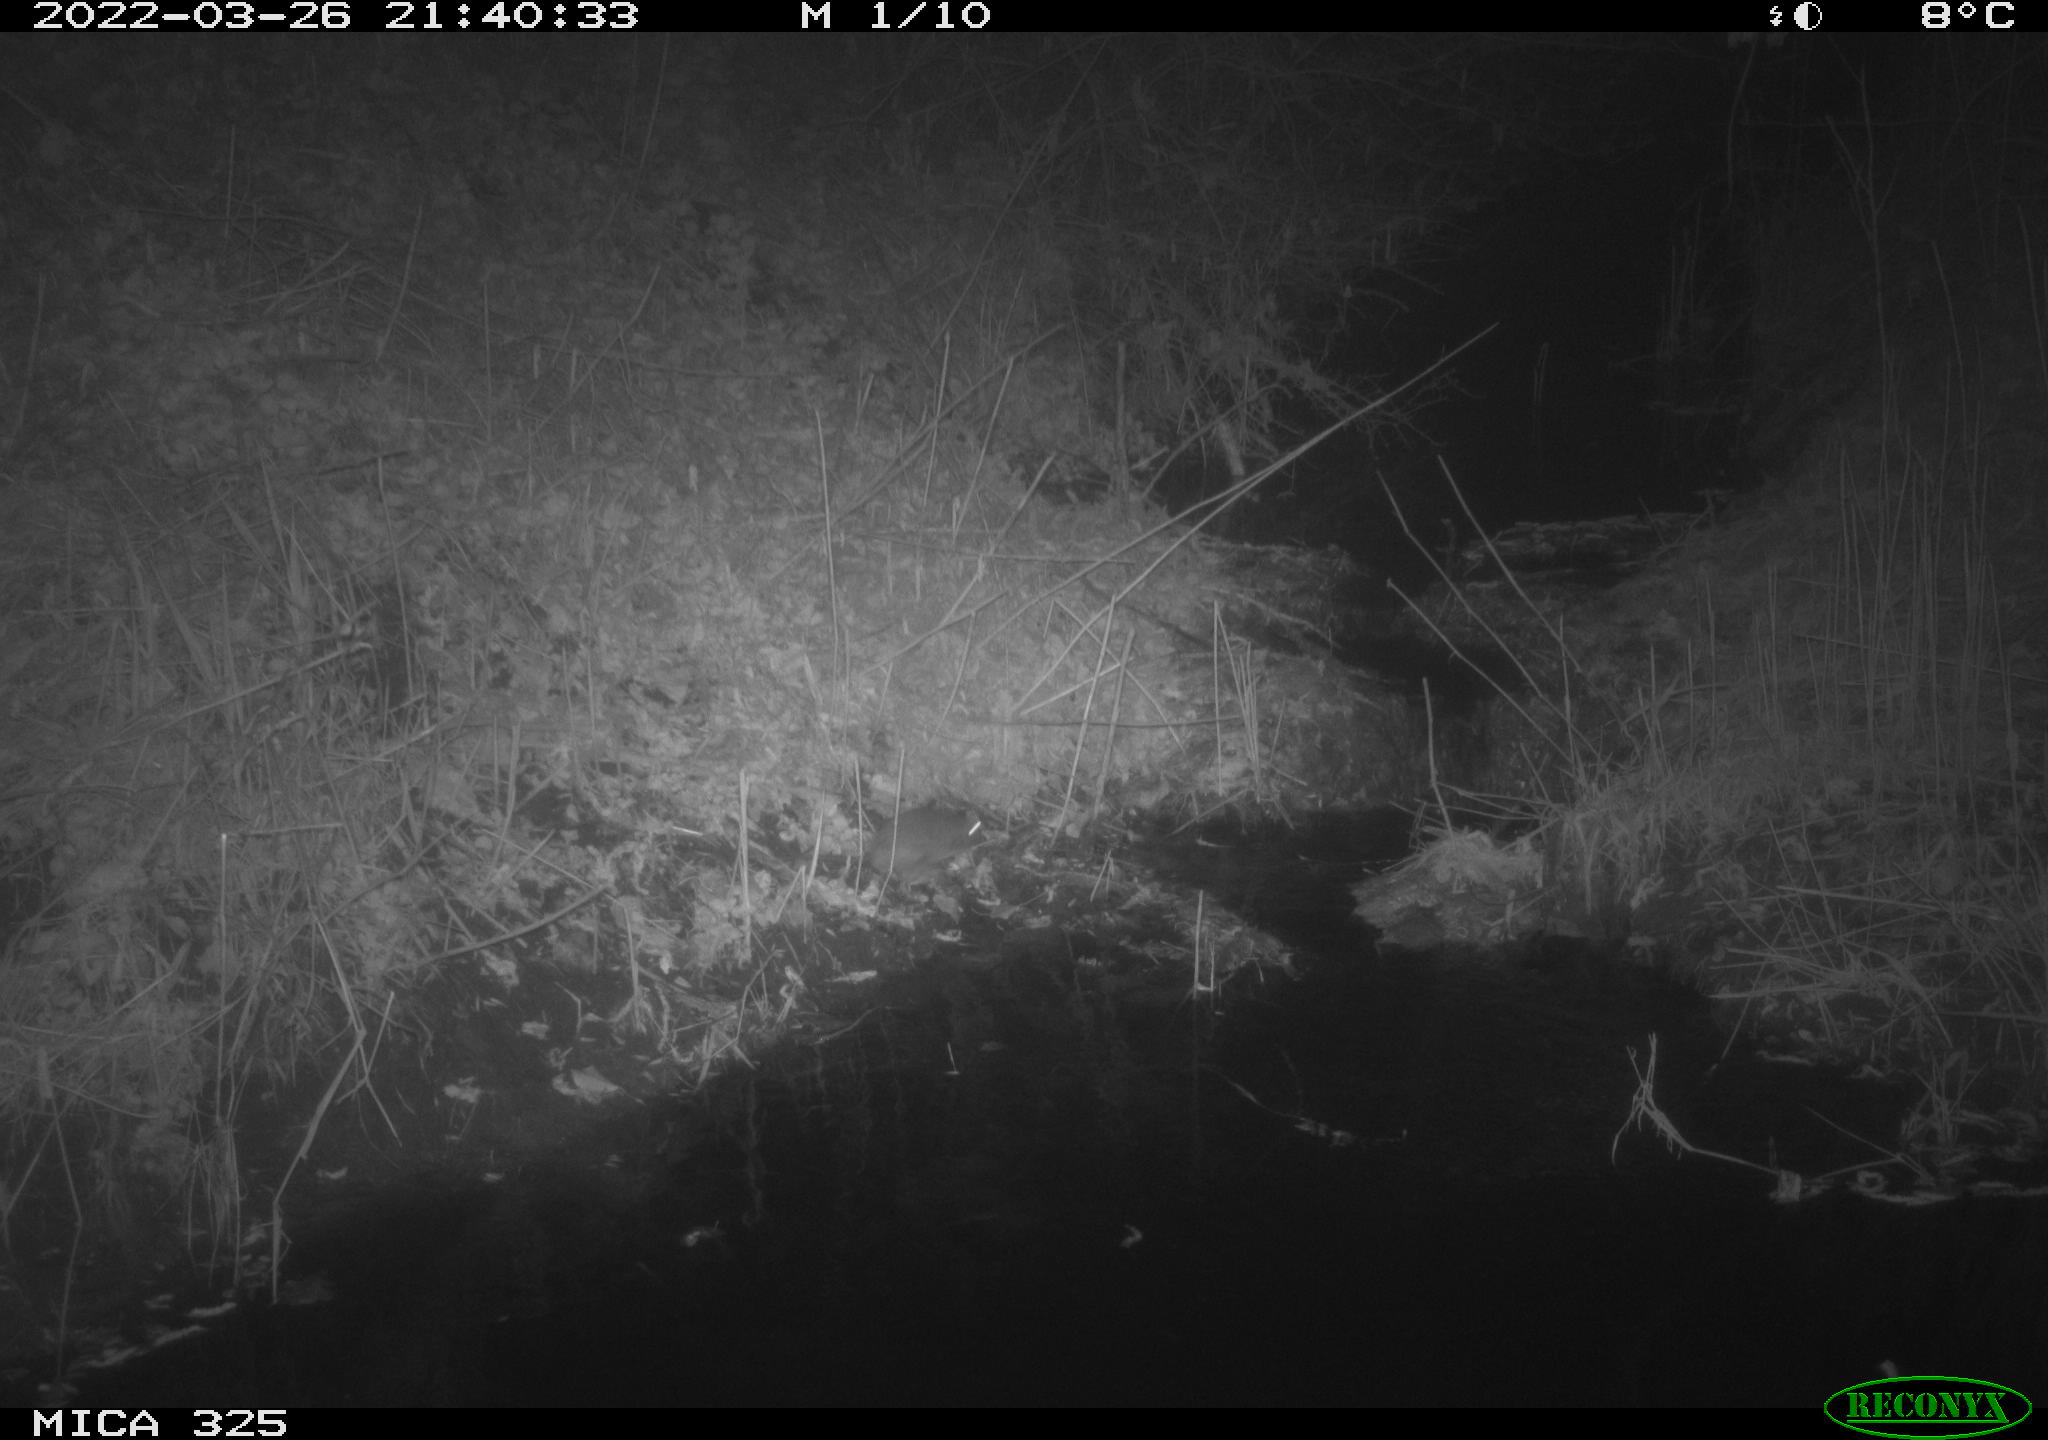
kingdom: Animalia
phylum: Chordata
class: Mammalia
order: Rodentia
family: Muridae
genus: Rattus
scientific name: Rattus norvegicus
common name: Brown rat
